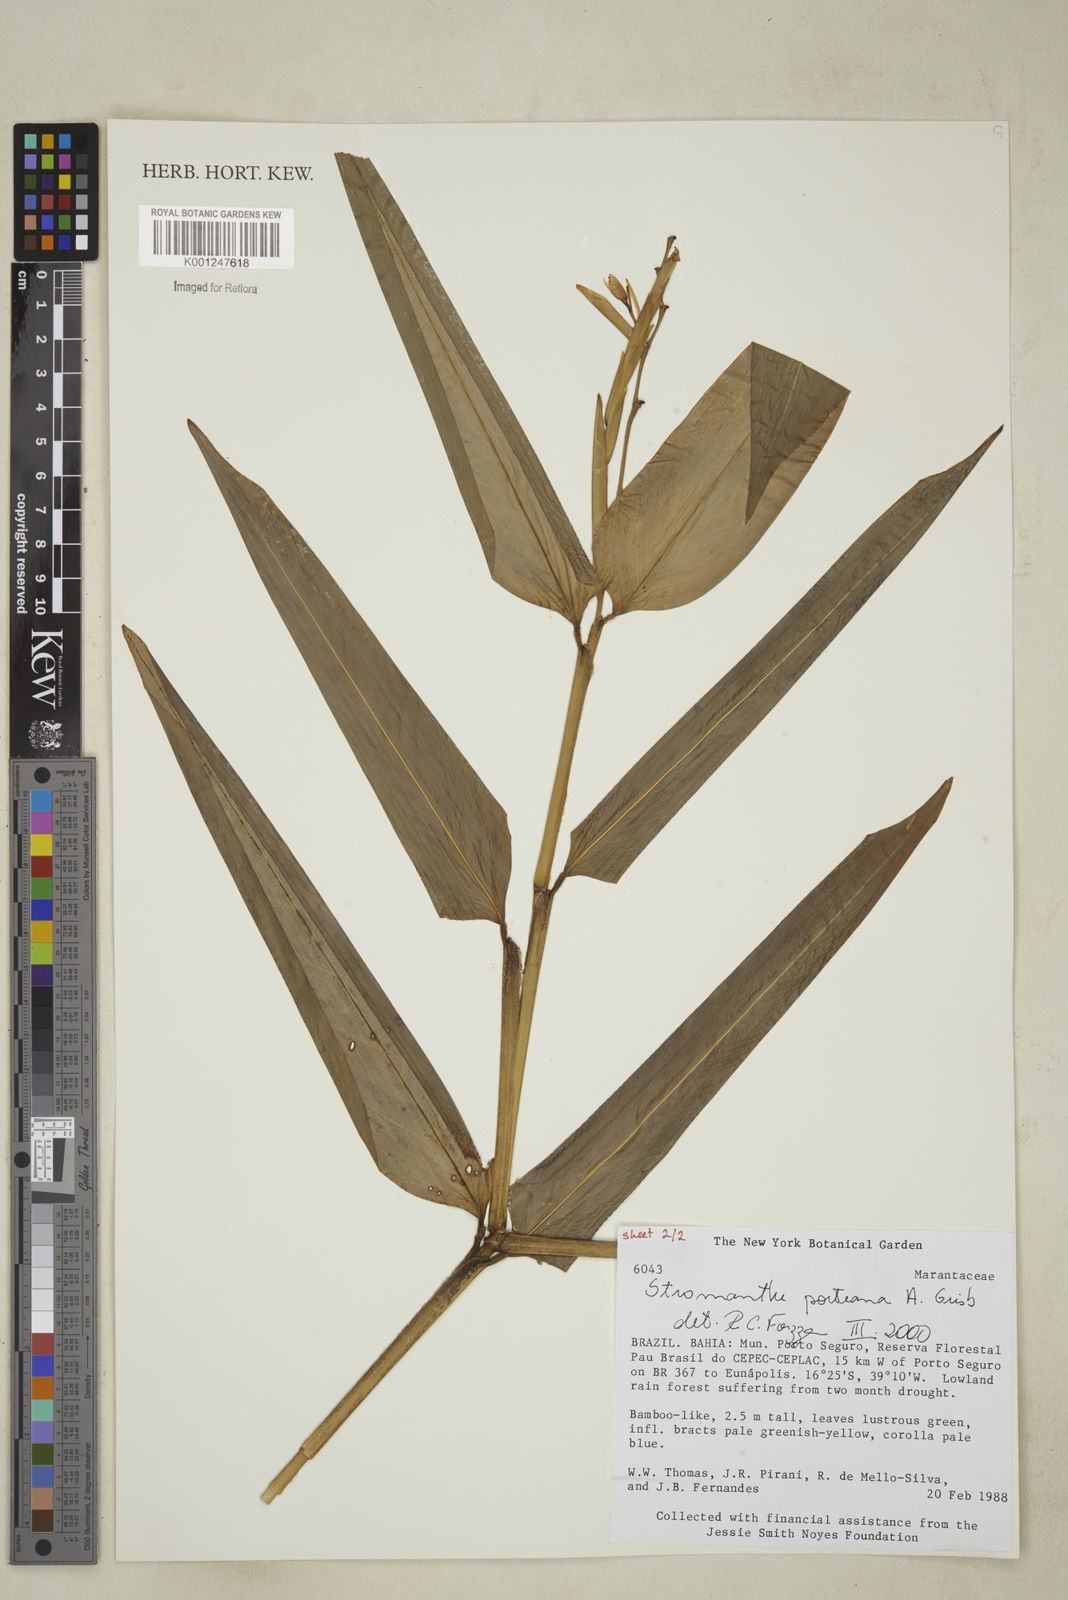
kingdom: Plantae
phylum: Tracheophyta
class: Liliopsida
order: Zingiberales
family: Marantaceae
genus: Stromanthe
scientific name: Stromanthe porteana
